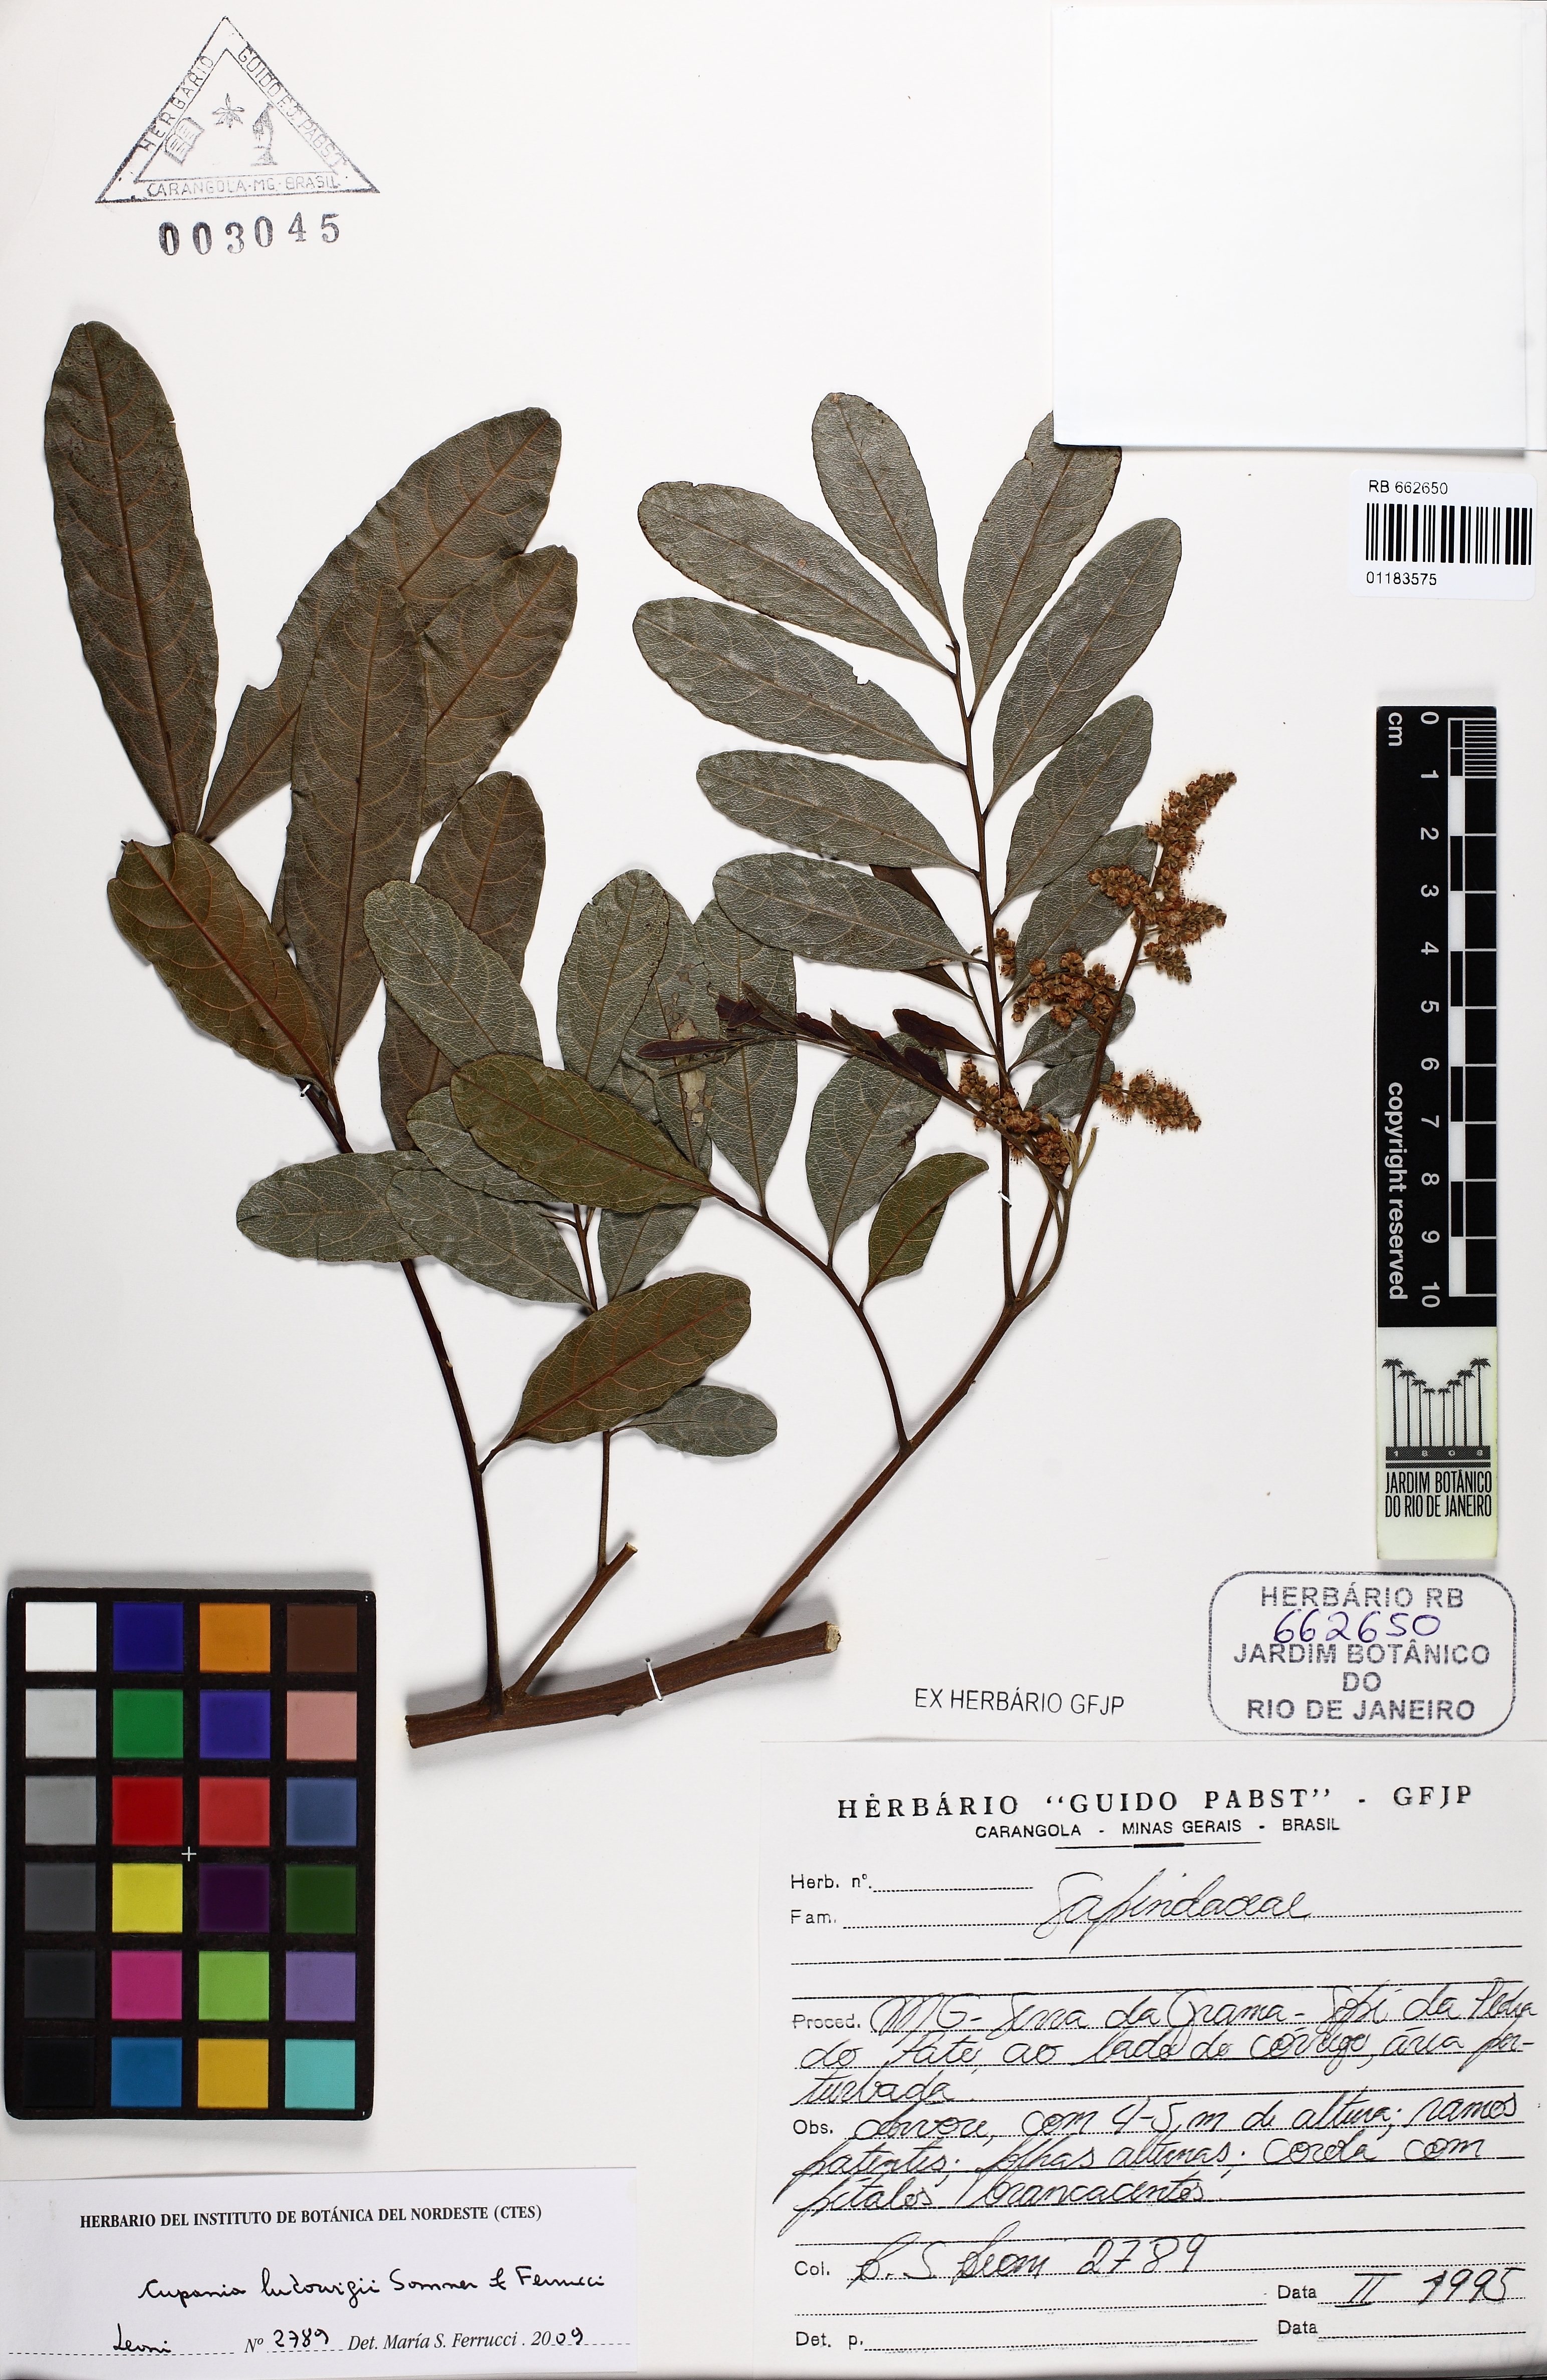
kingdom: Plantae
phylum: Tracheophyta
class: Magnoliopsida
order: Sapindales
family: Sapindaceae
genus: Cupania
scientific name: Cupania ludowigii
